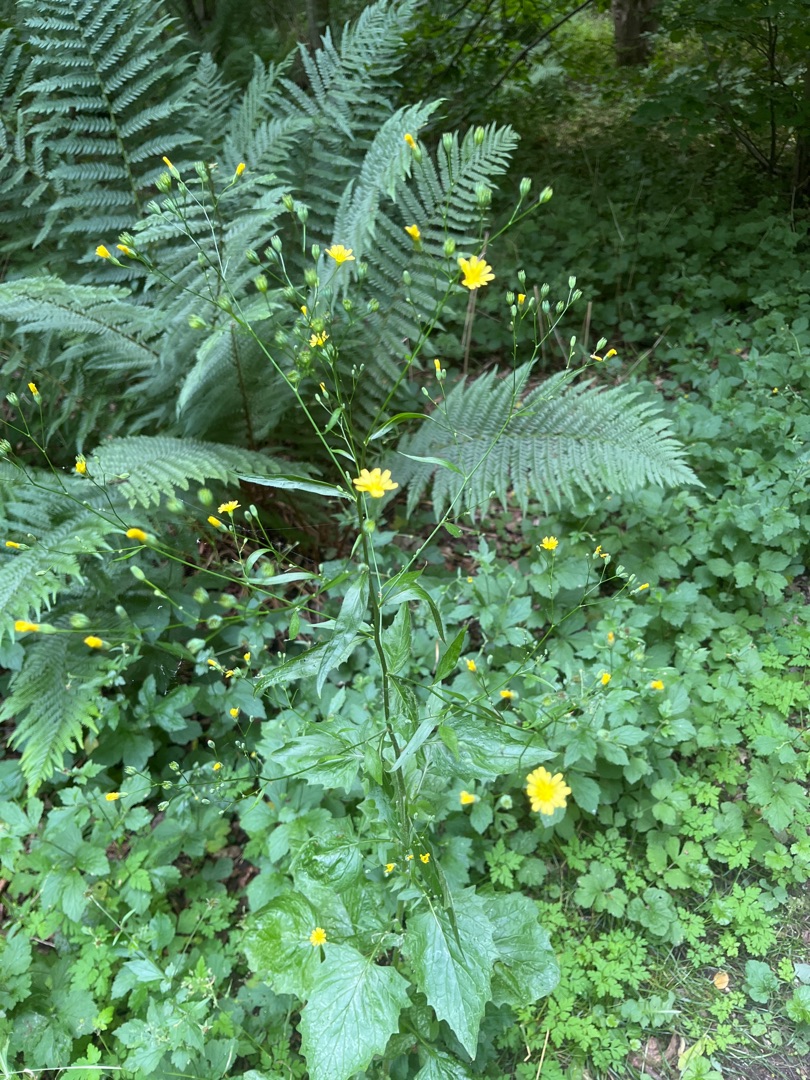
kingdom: Plantae
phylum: Tracheophyta
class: Magnoliopsida
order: Asterales
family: Asteraceae
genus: Lapsana
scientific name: Lapsana communis
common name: Haremad
